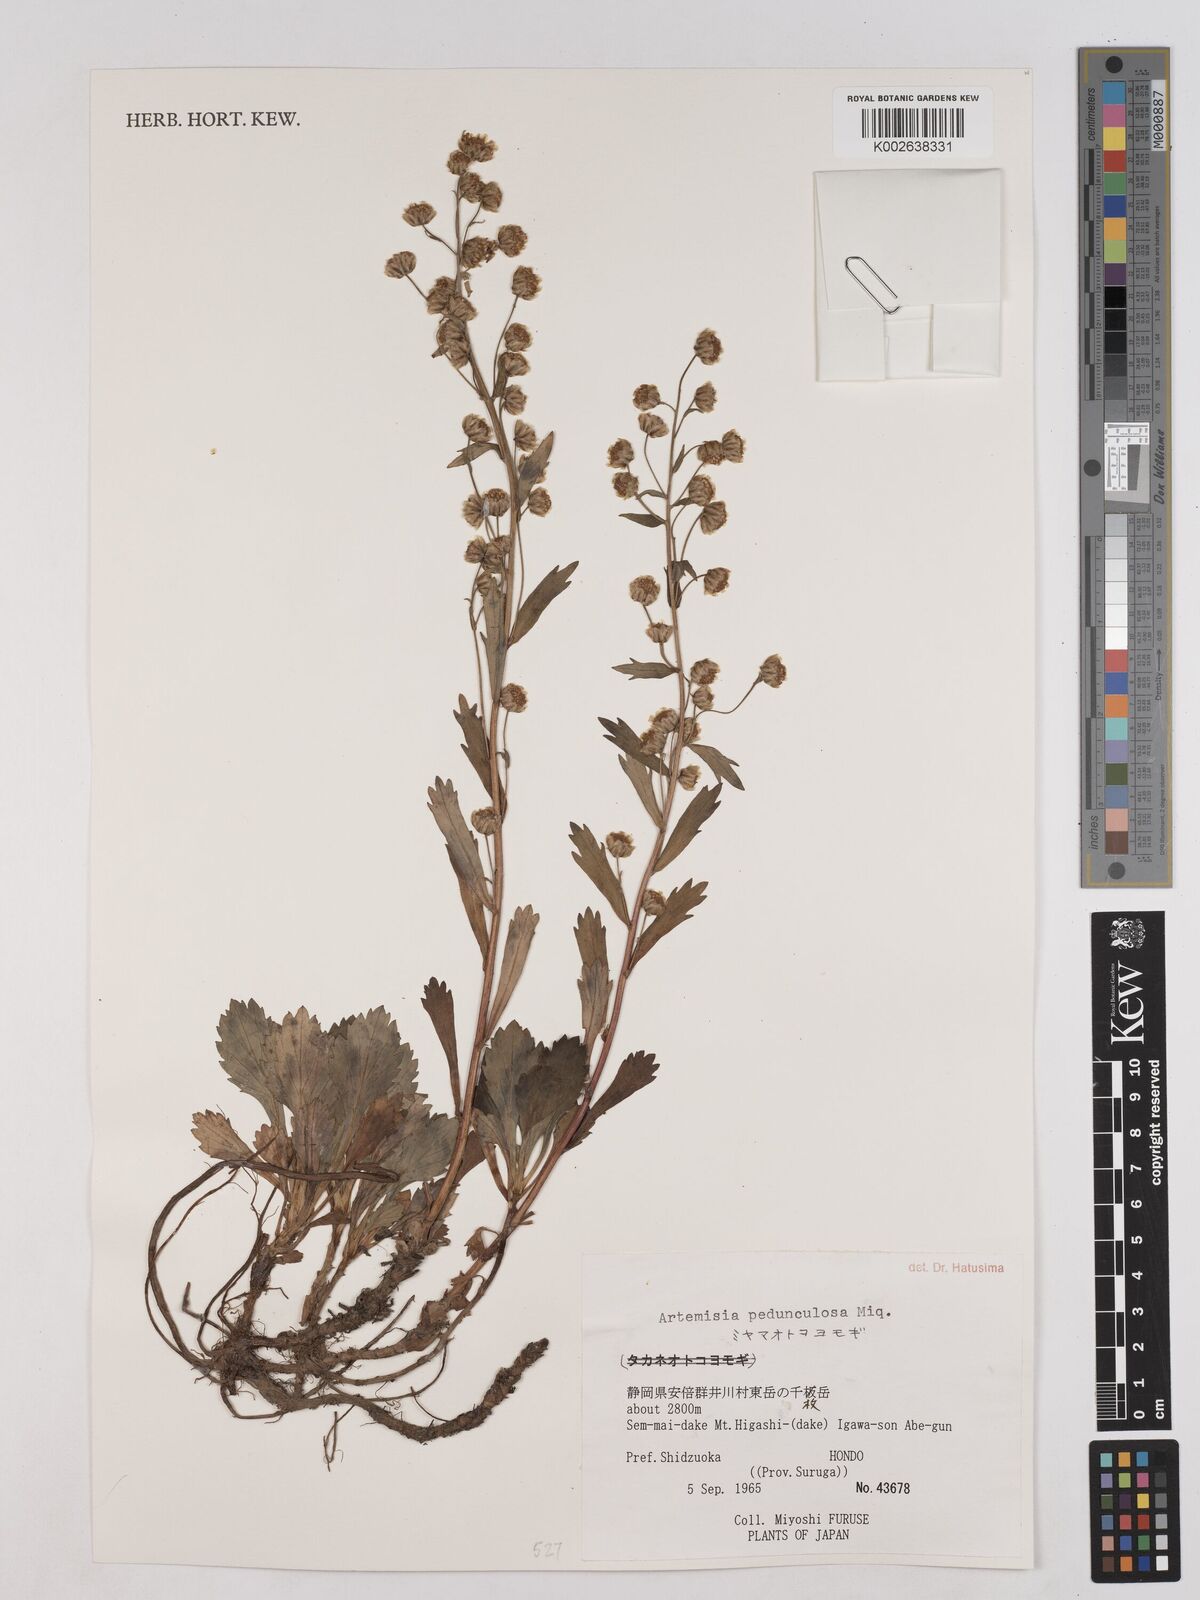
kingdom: Plantae
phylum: Tracheophyta
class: Magnoliopsida
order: Asterales
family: Asteraceae
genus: Artemisia
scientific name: Artemisia pedunculosa
